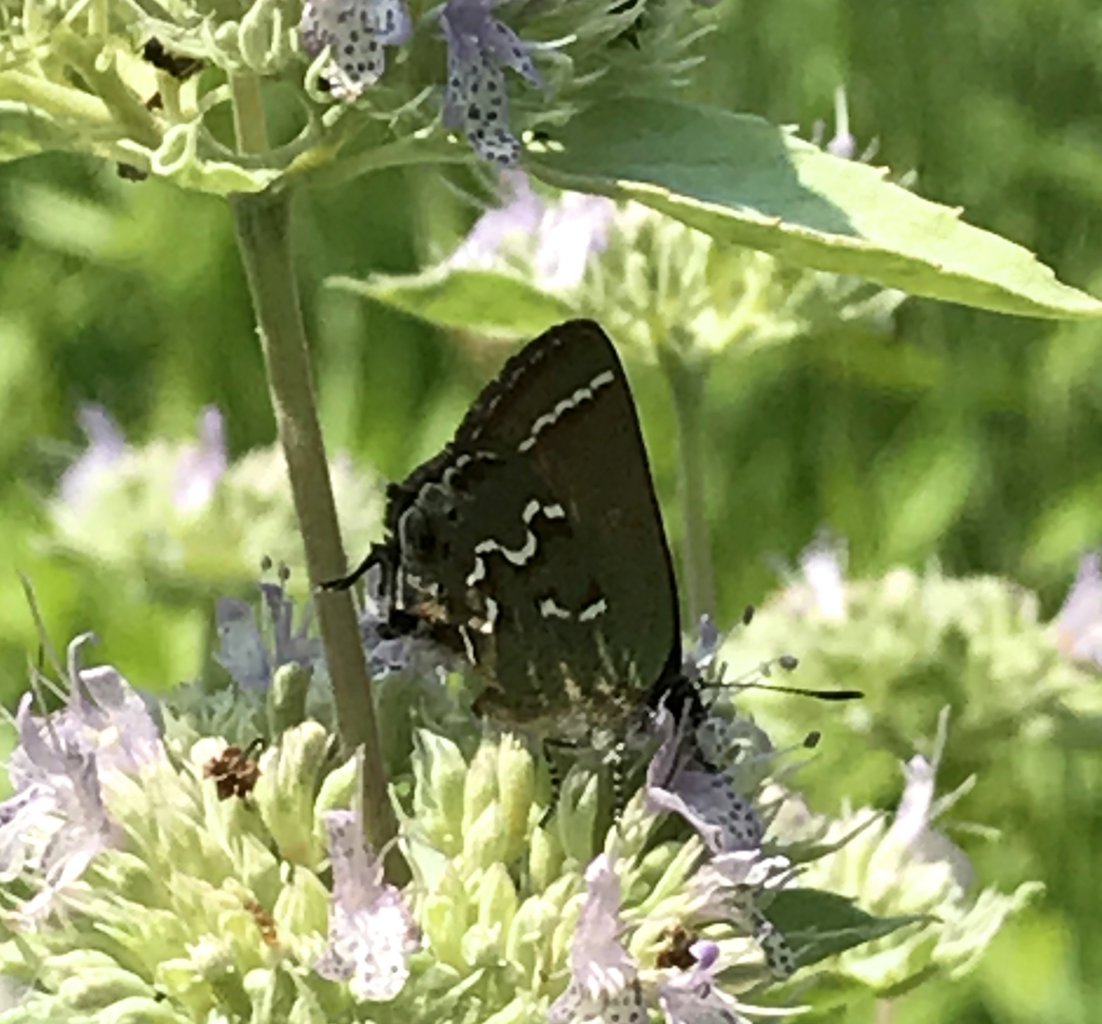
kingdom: Animalia
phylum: Arthropoda
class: Insecta
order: Lepidoptera
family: Lycaenidae
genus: Mitoura
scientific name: Mitoura gryneus
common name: Juniper Hairstreak
